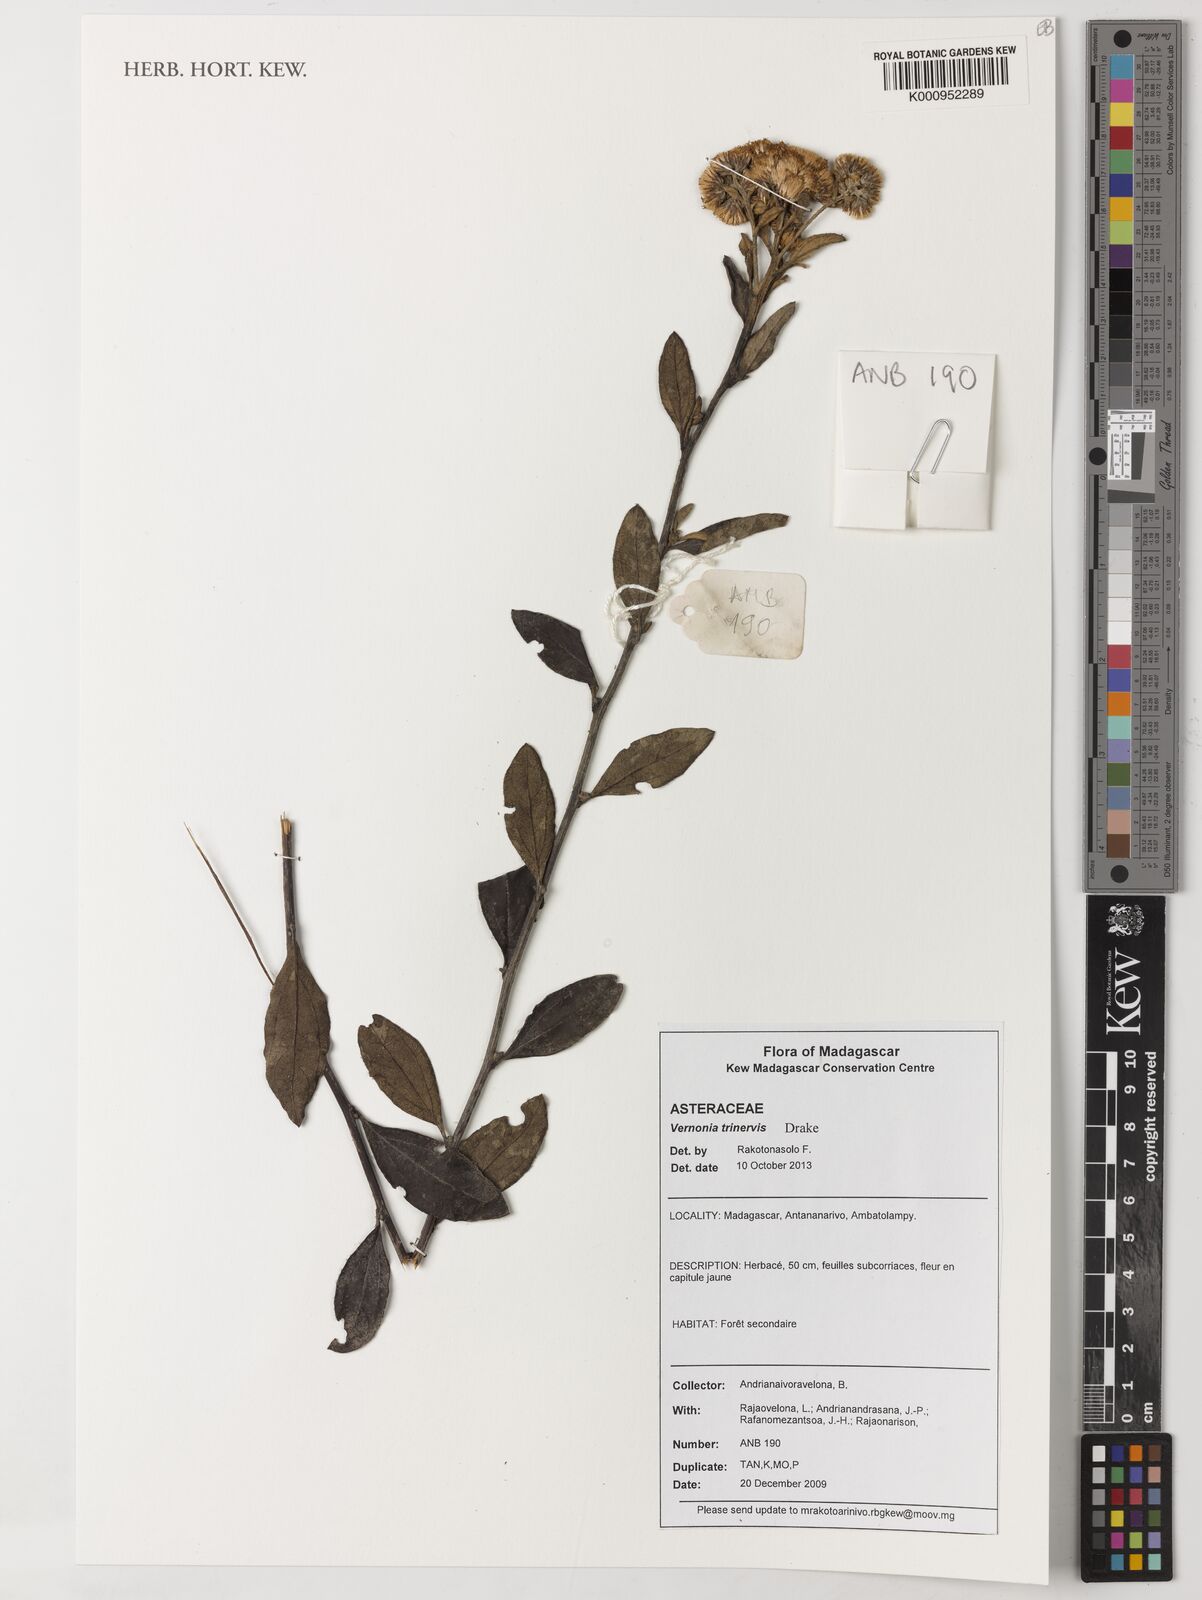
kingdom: Plantae
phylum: Tracheophyta
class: Magnoliopsida
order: Asterales
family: Asteraceae
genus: Distephanus
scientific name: Distephanus trinervis
